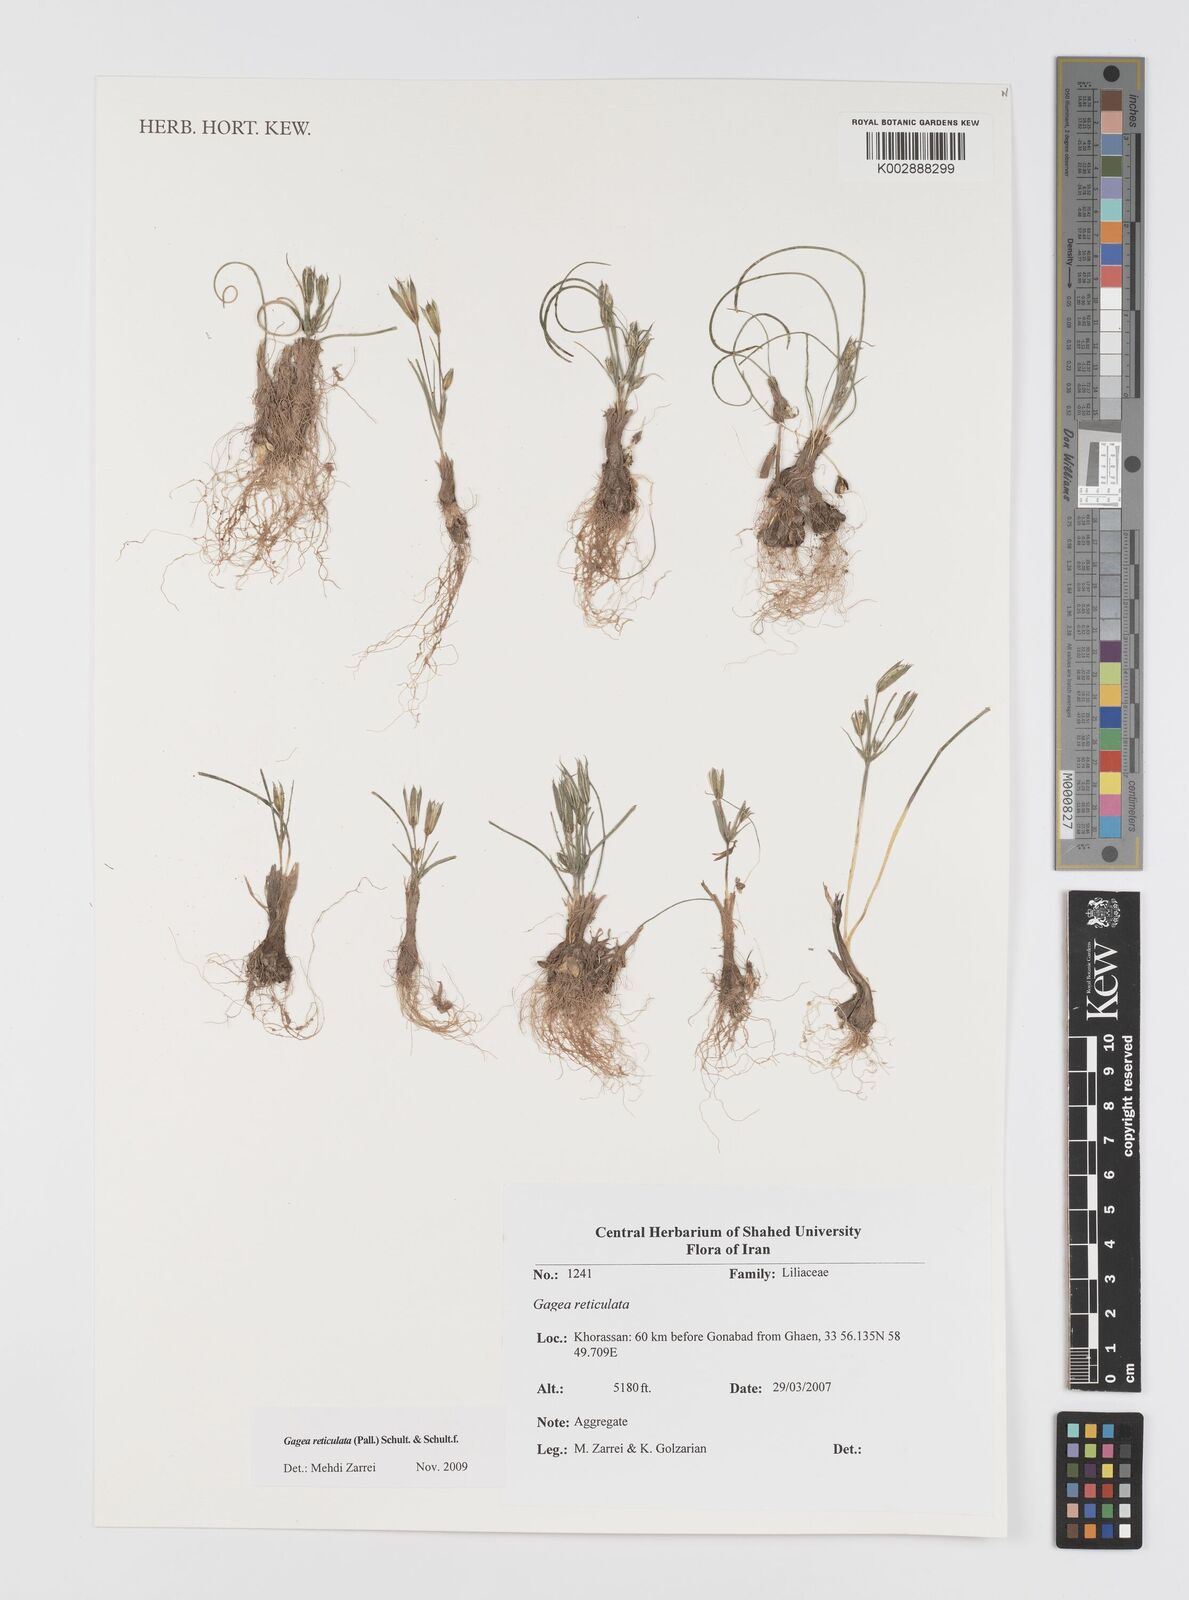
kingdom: Plantae
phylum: Tracheophyta
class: Liliopsida
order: Liliales
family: Liliaceae
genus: Gagea
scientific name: Gagea reticulata
